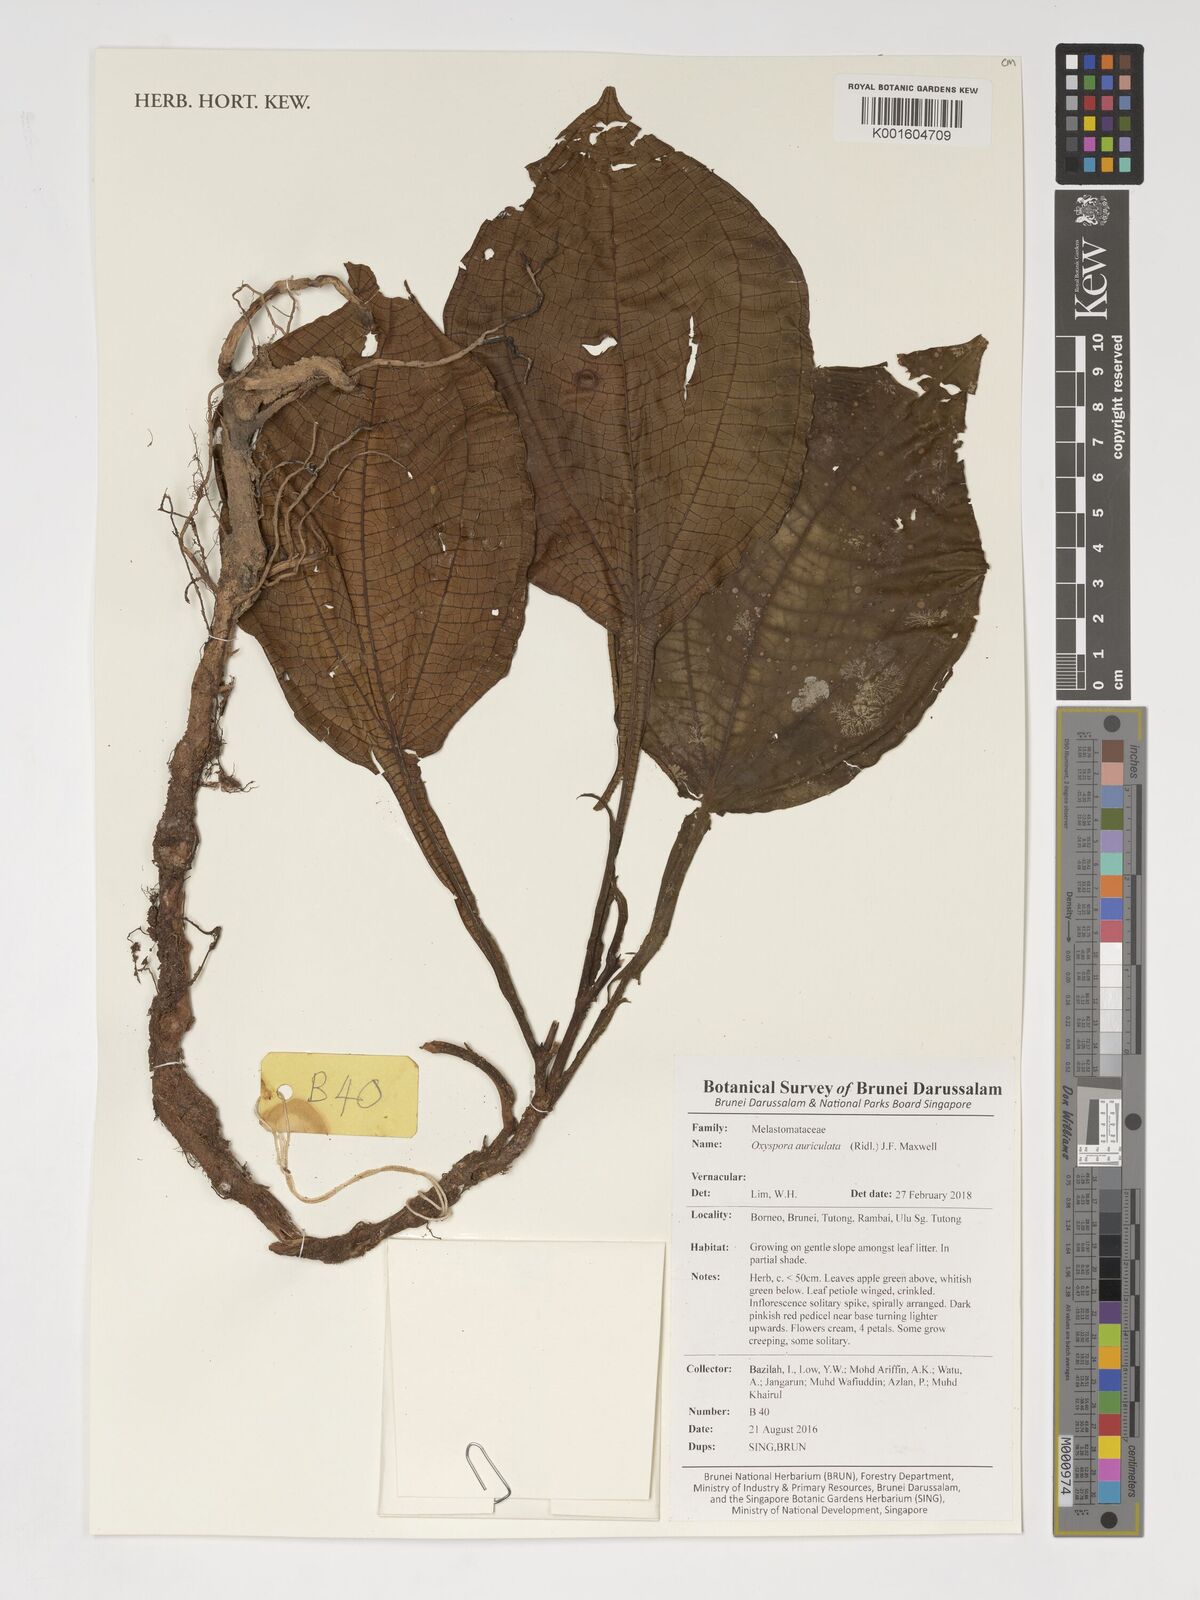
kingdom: Plantae
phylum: Tracheophyta
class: Magnoliopsida
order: Myrtales
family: Melastomataceae
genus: Campimia
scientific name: Campimia auriculata
